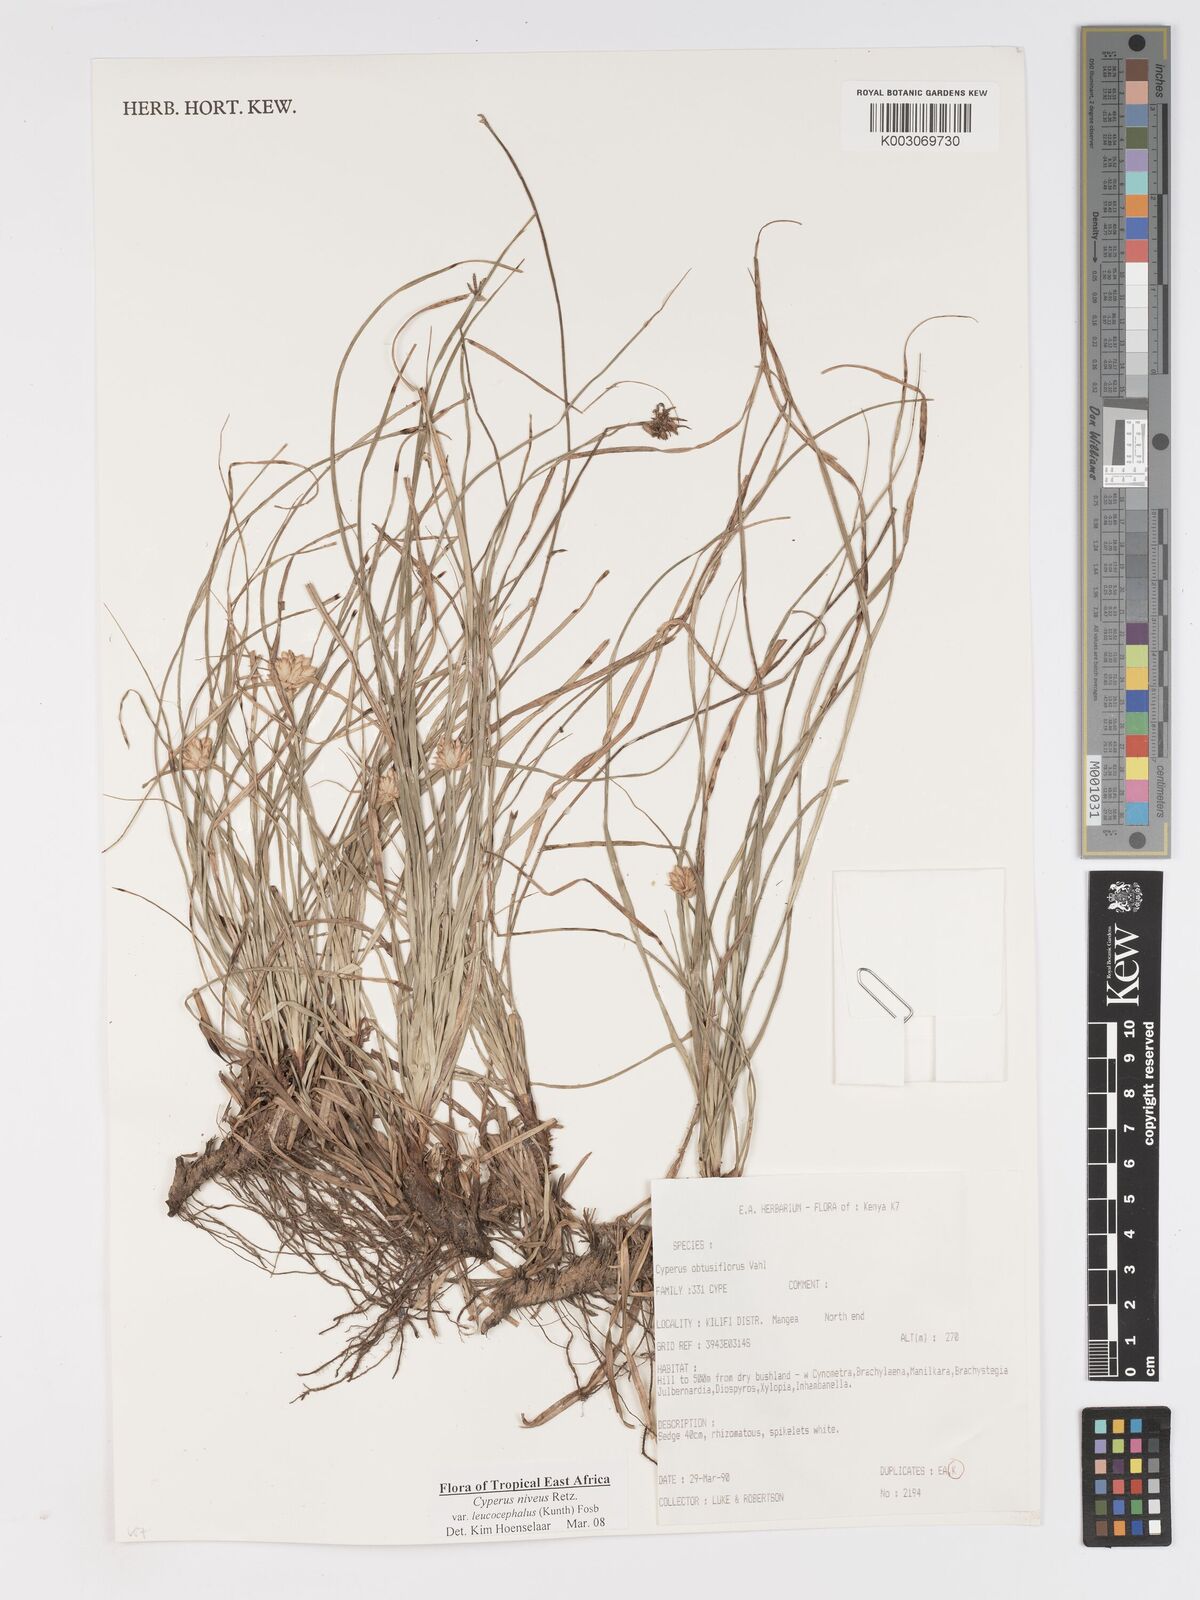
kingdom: Plantae
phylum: Tracheophyta
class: Liliopsida
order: Poales
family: Cyperaceae
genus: Cyperus
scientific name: Cyperus niveus
